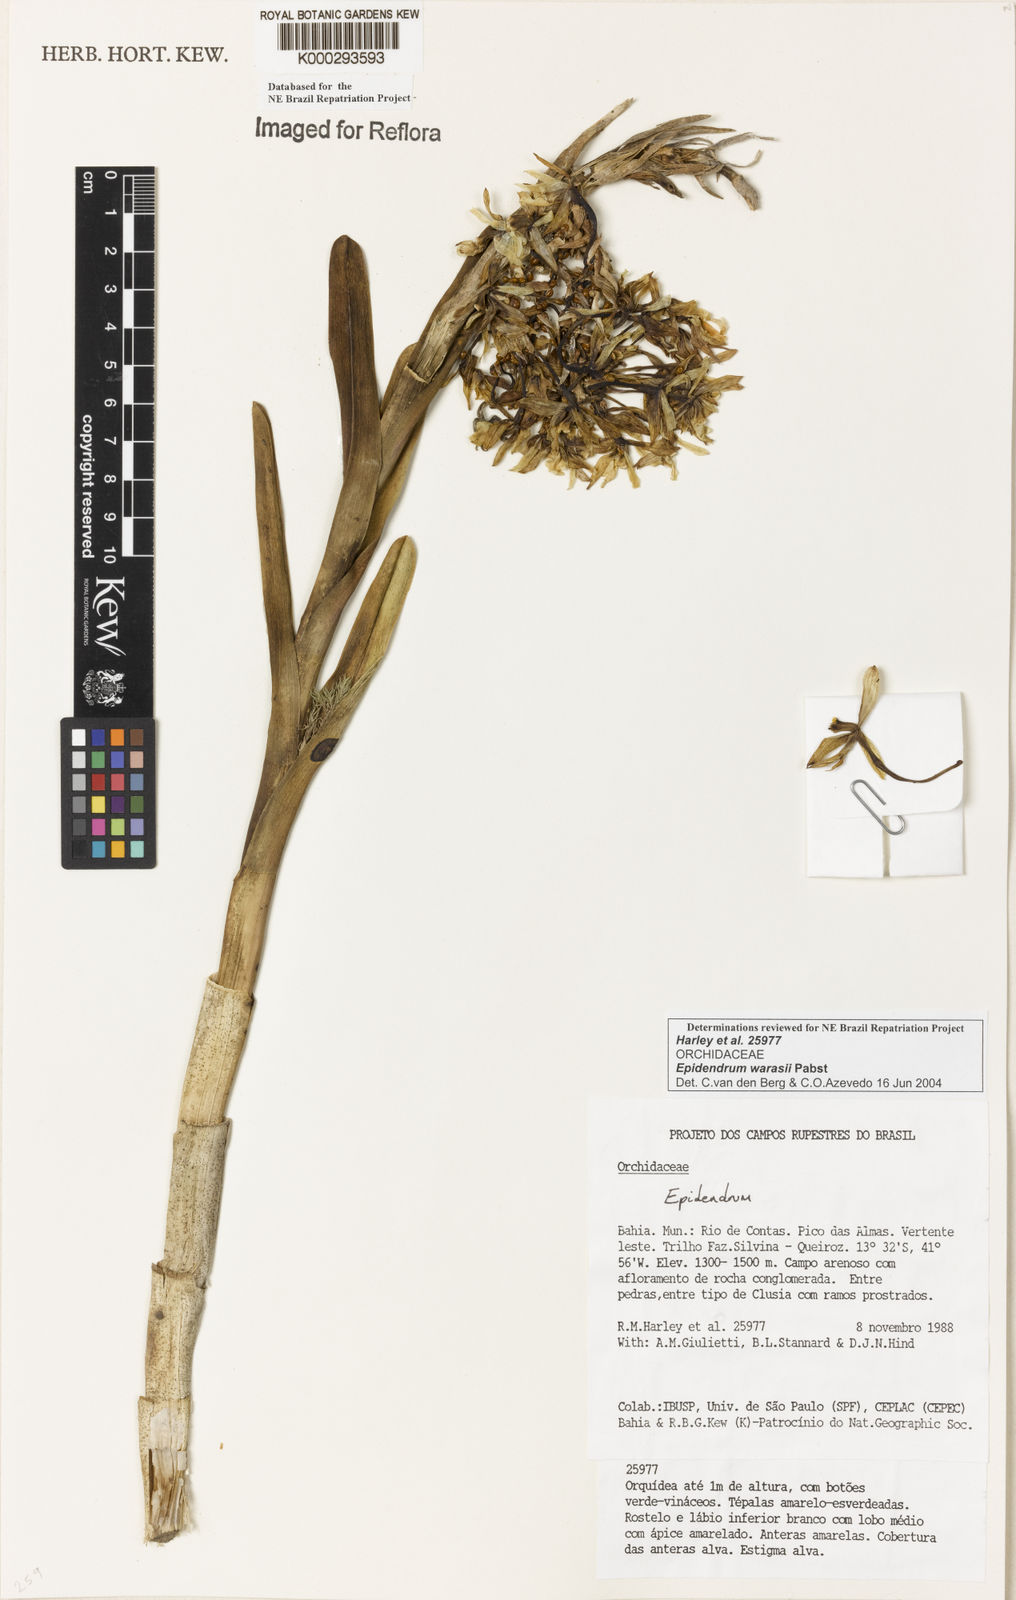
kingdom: Plantae
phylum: Tracheophyta
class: Liliopsida
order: Asparagales
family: Orchidaceae
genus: Epidendrum
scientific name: Epidendrum warrasii
